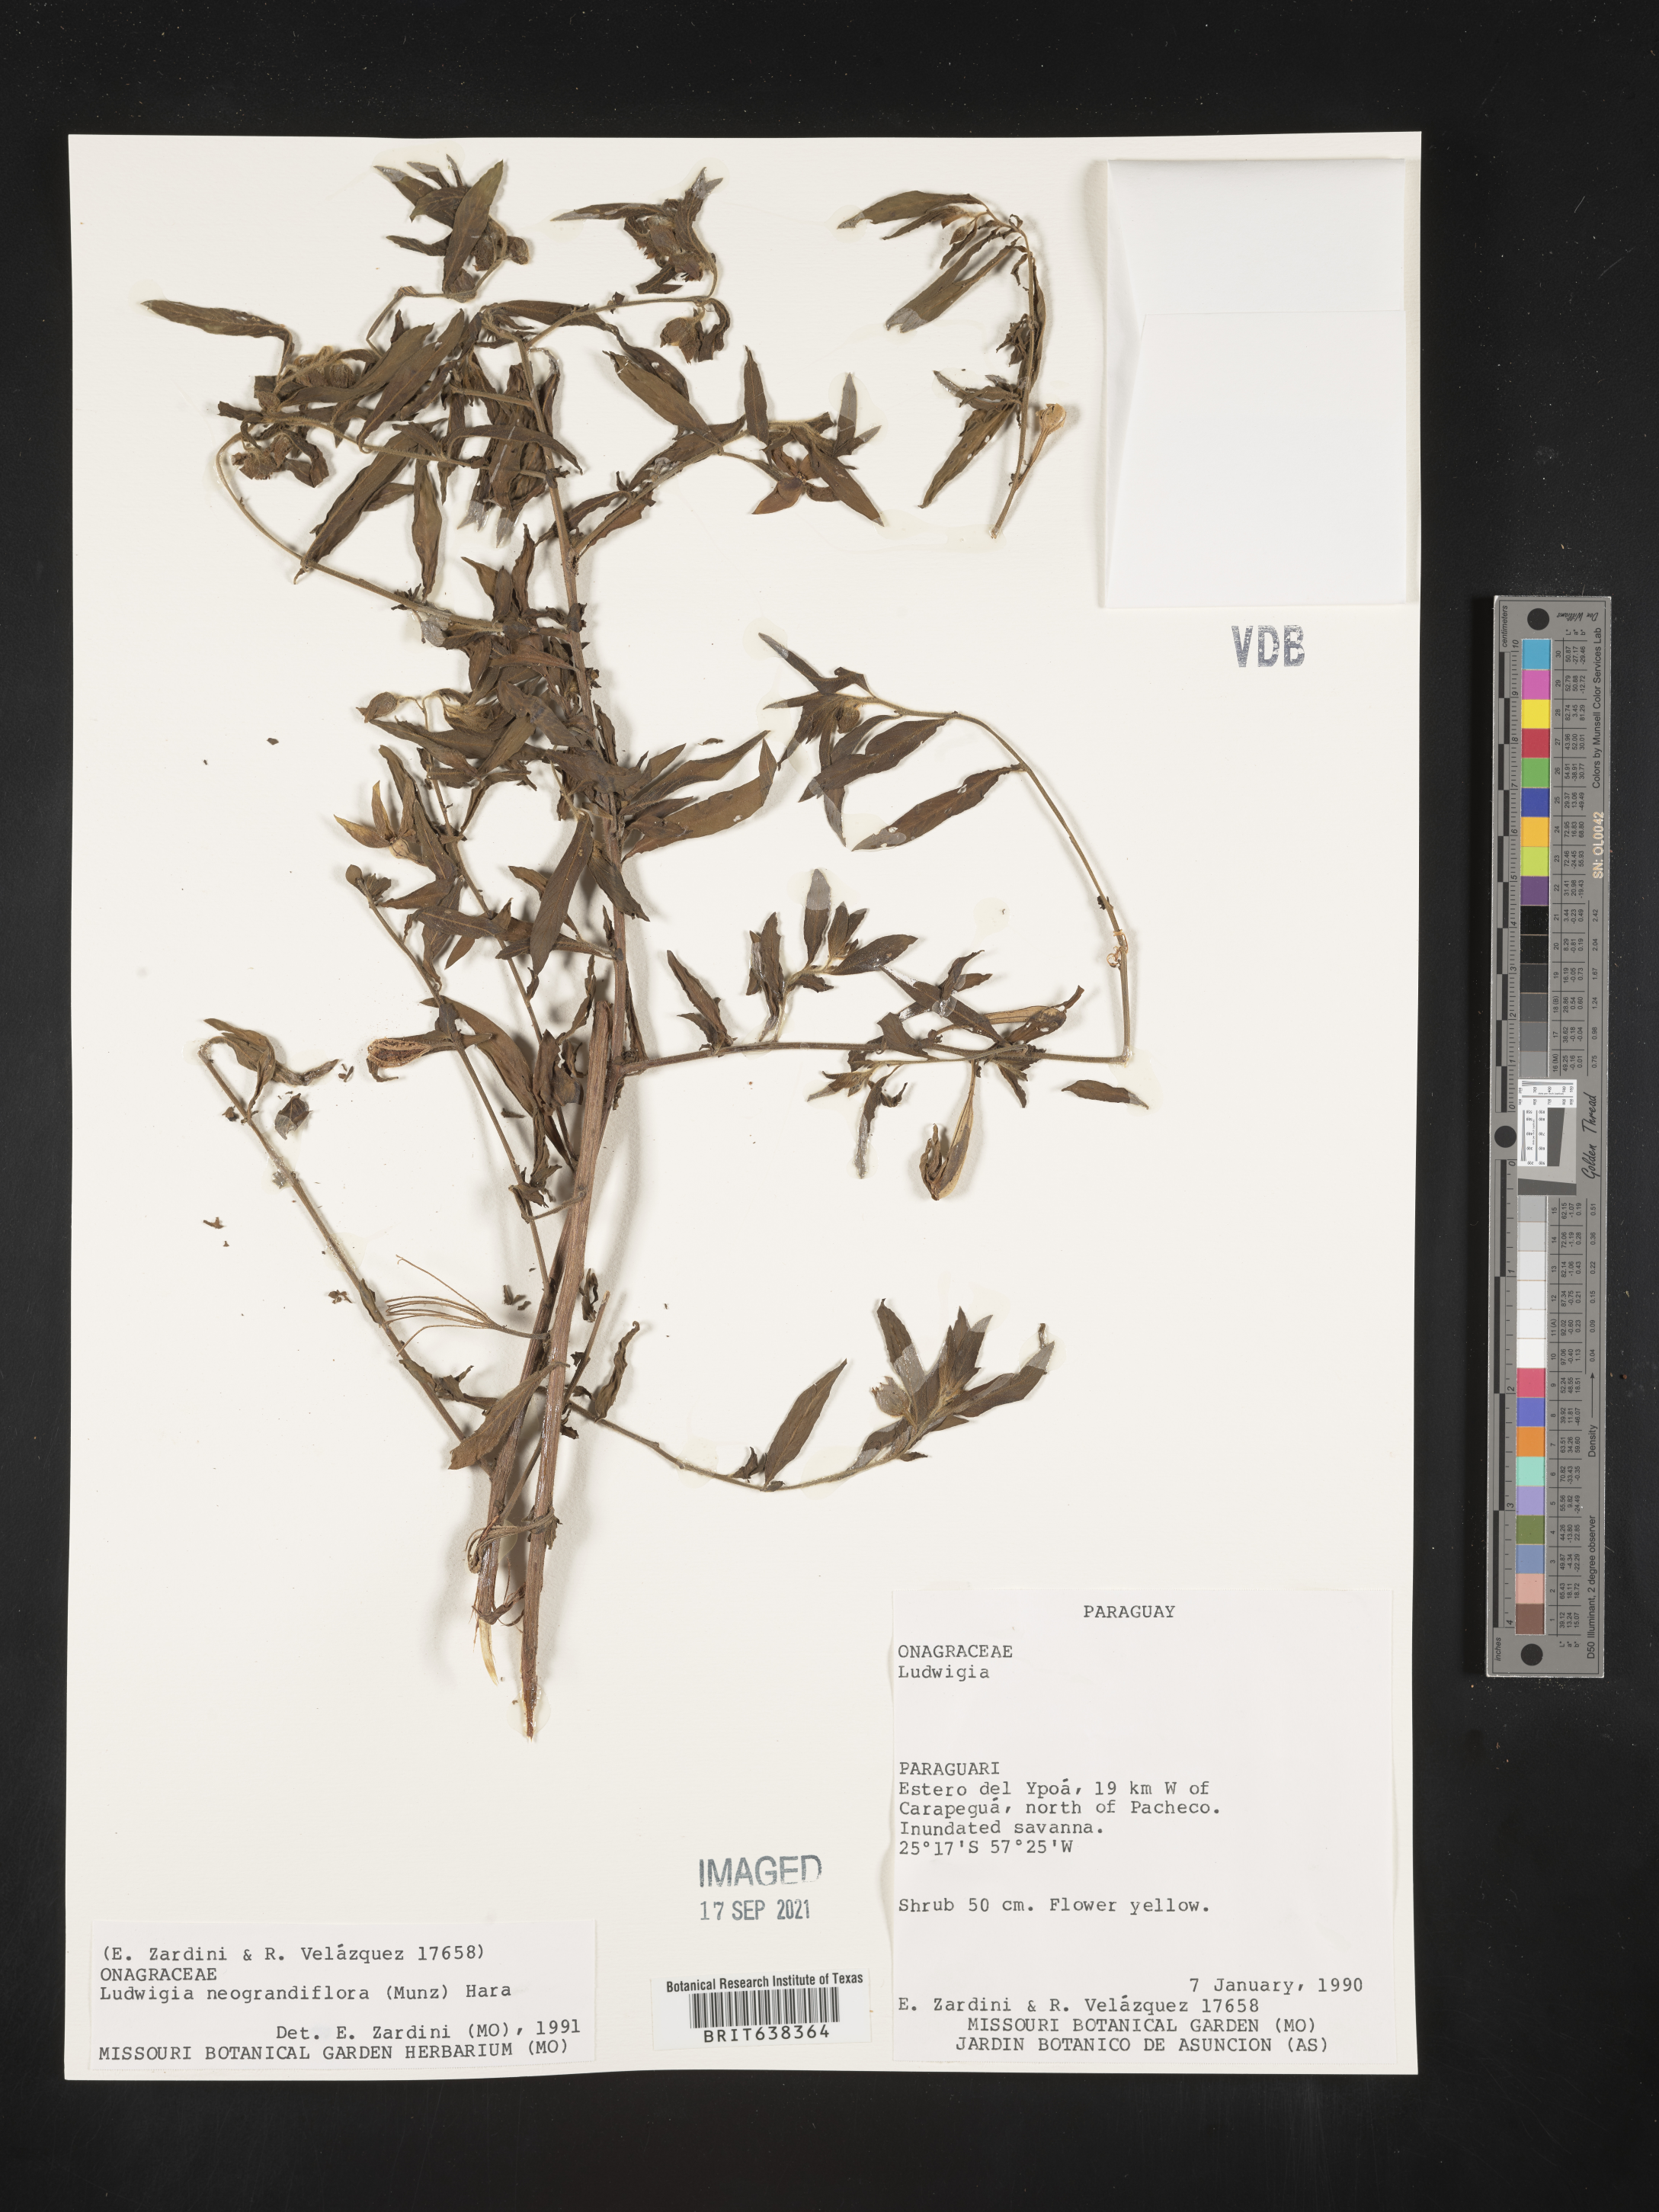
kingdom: Plantae
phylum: Tracheophyta
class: Magnoliopsida
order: Myrtales
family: Onagraceae
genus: Ludwigia
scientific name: Ludwigia
